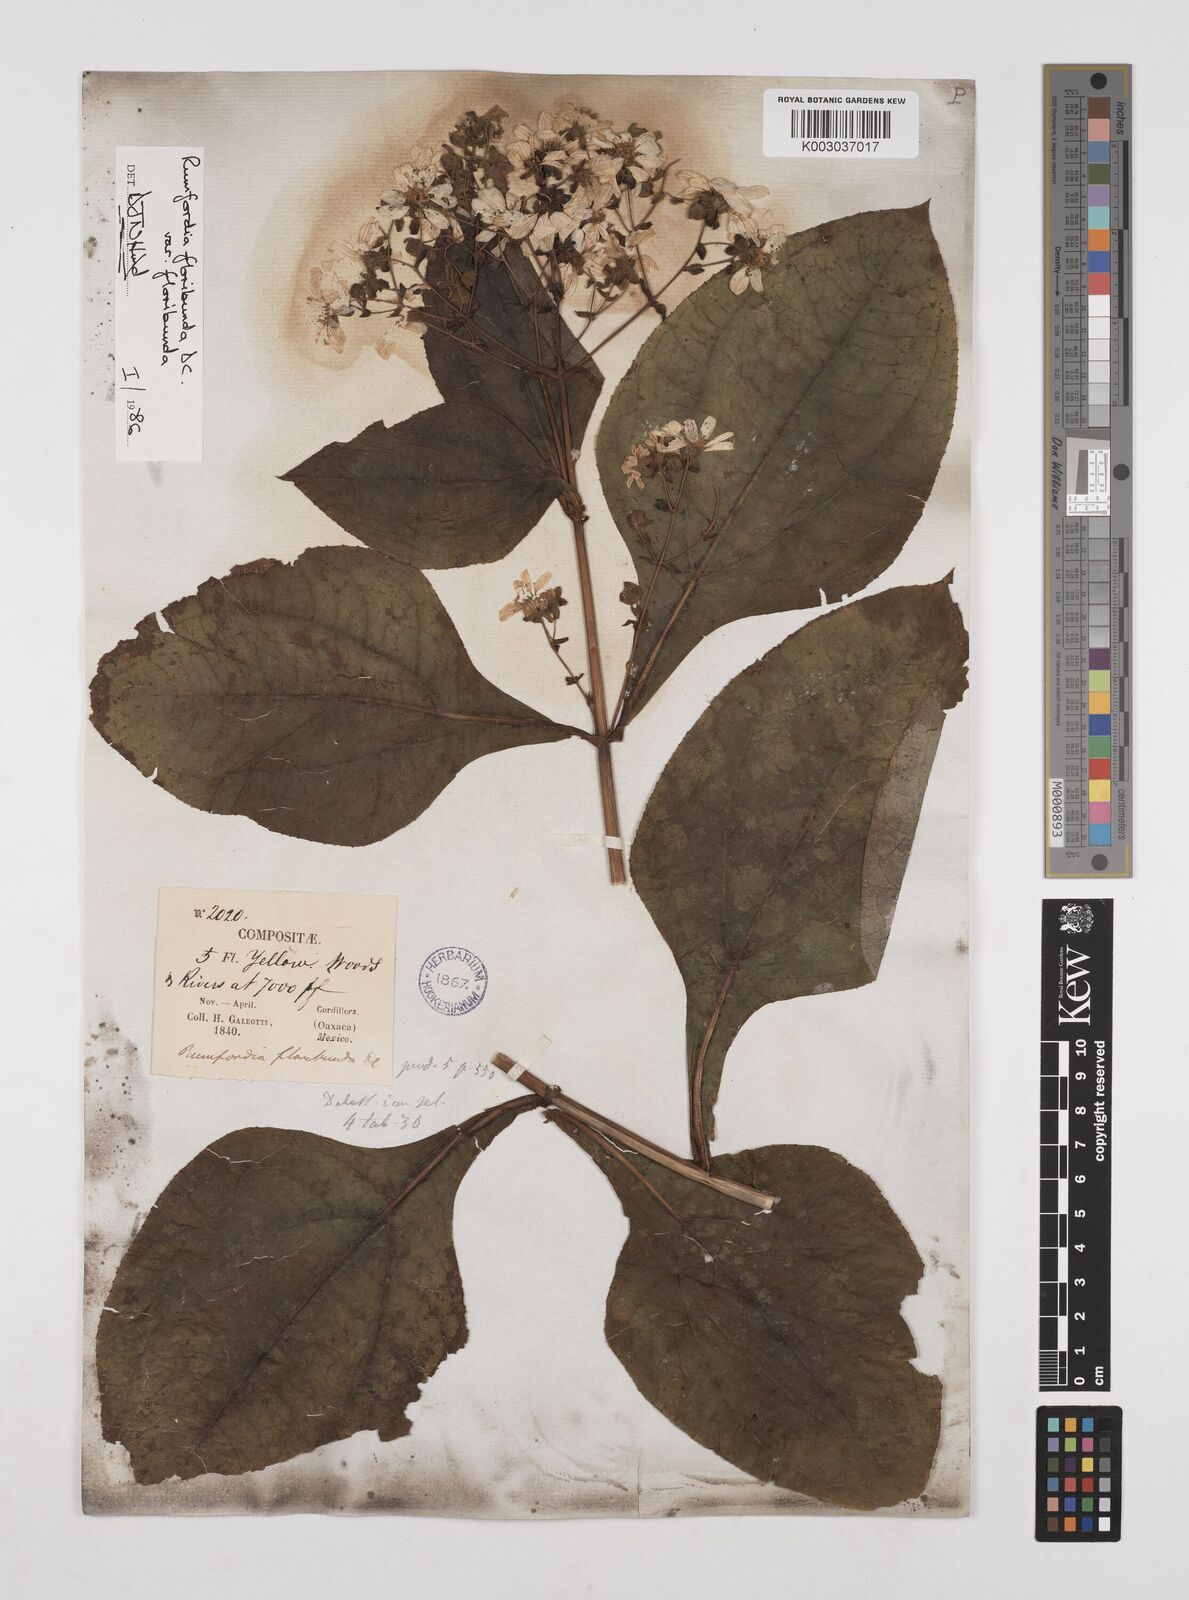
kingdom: Plantae
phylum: Tracheophyta
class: Magnoliopsida
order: Asterales
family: Asteraceae
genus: Rumfordia
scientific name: Rumfordia floribunda
